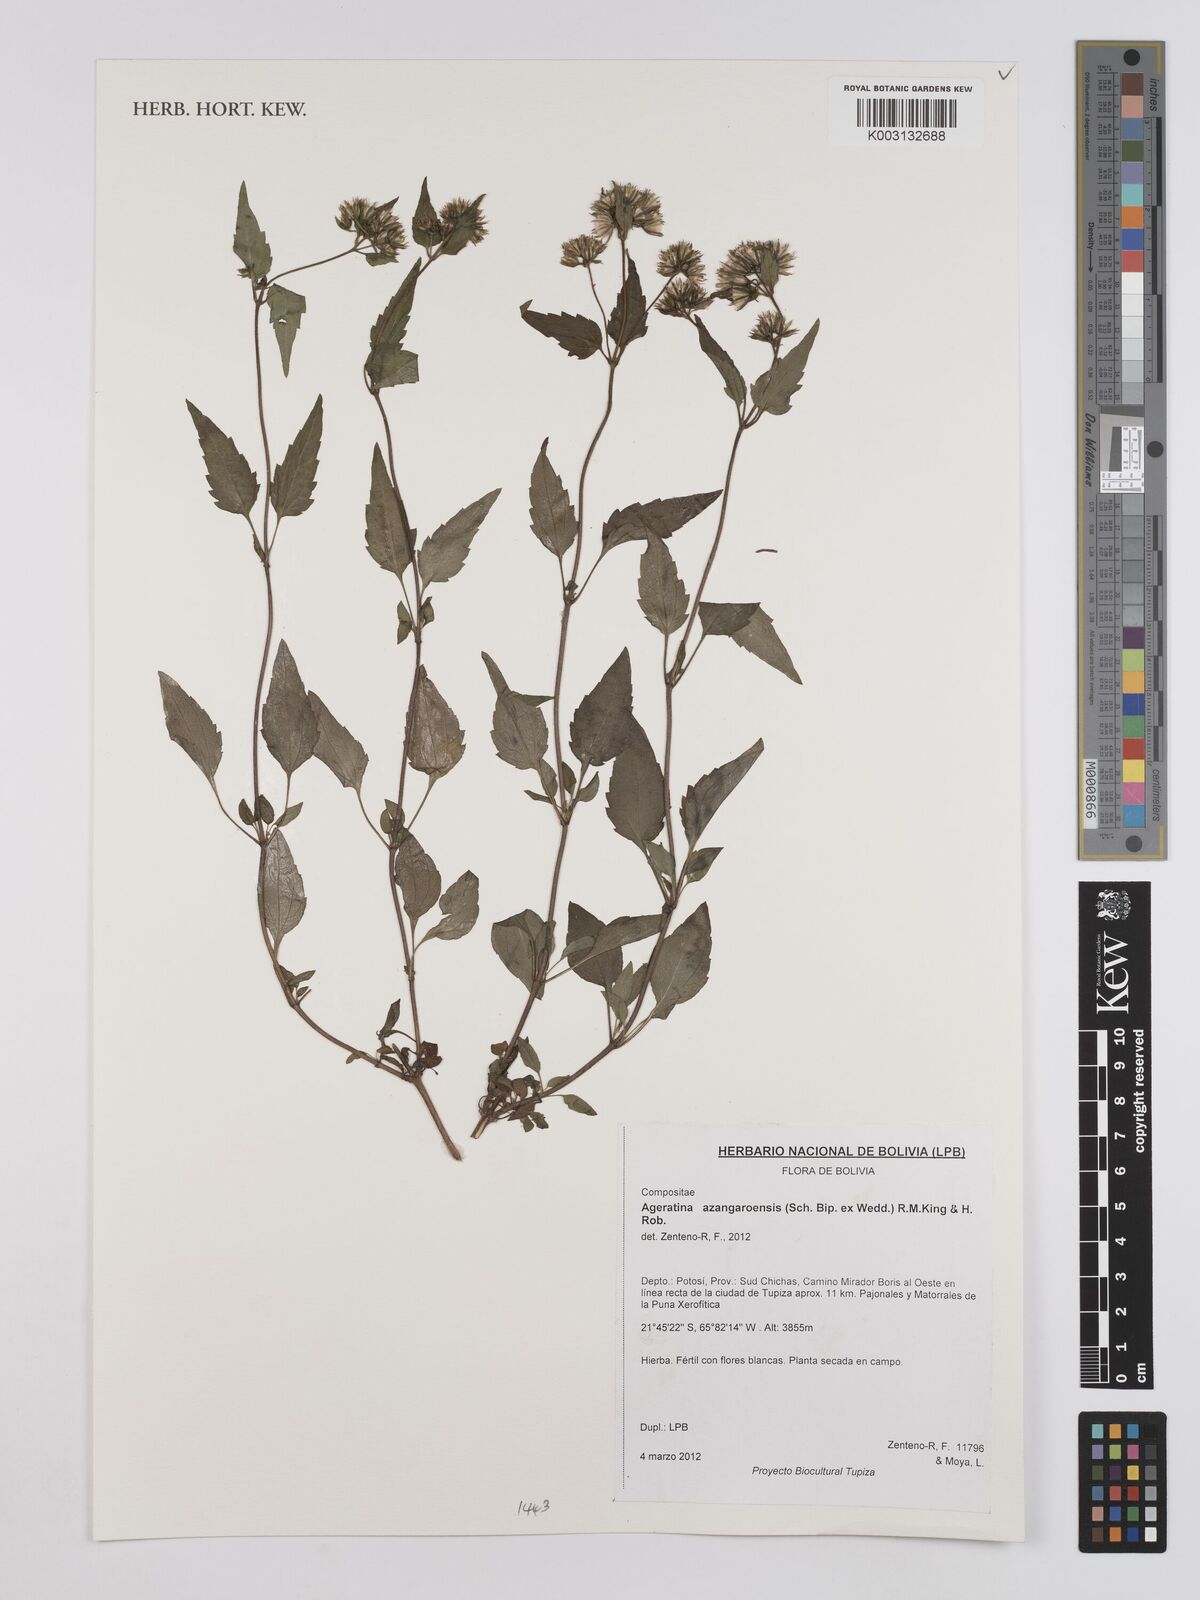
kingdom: Plantae
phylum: Tracheophyta
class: Magnoliopsida
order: Asterales
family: Asteraceae
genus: Ageratina
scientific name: Ageratina glechonophylla
